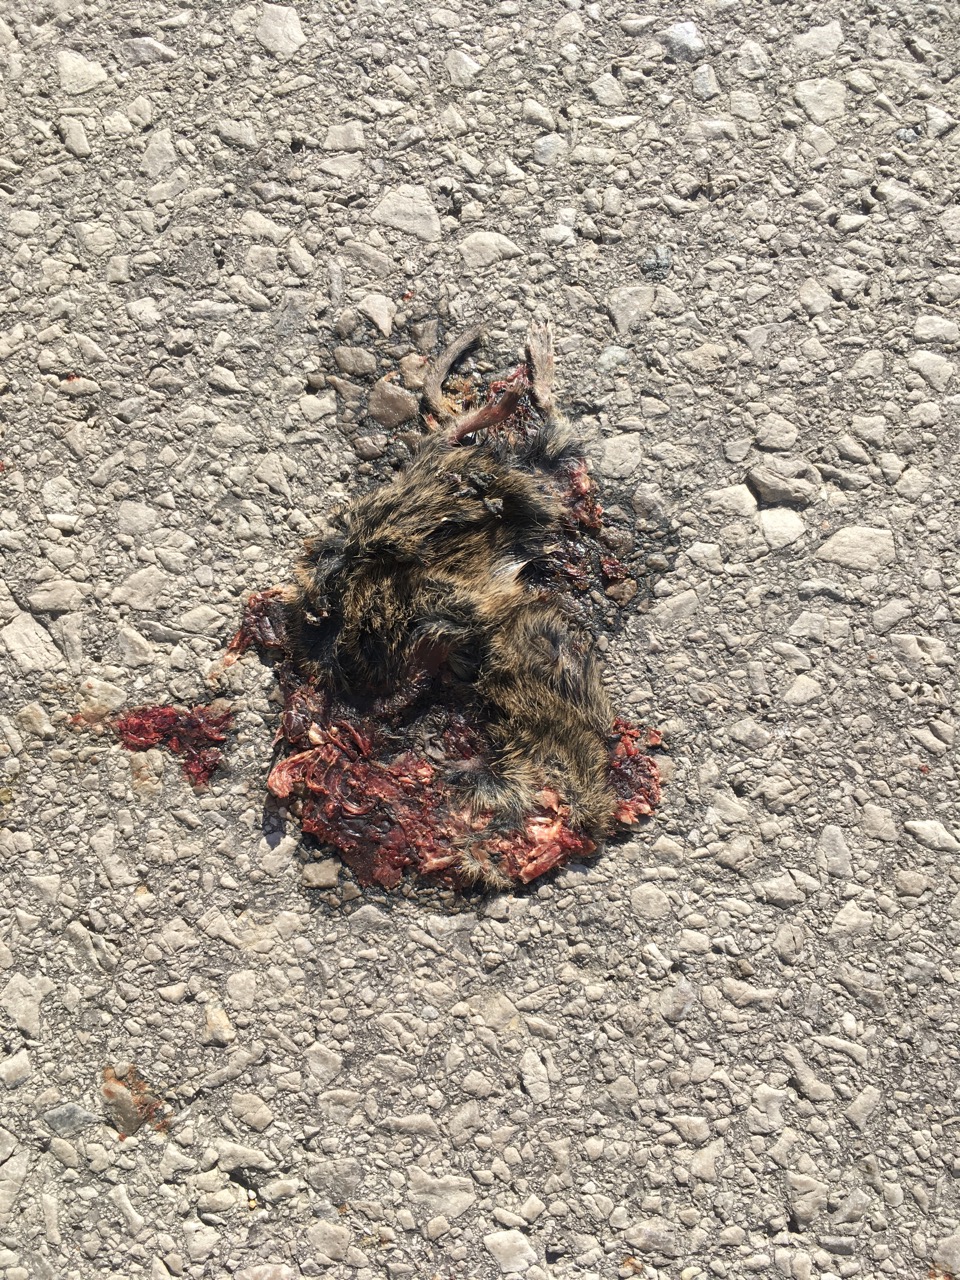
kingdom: Animalia
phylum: Chordata
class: Mammalia
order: Rodentia
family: Cricetidae
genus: Microtus
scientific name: Microtus
